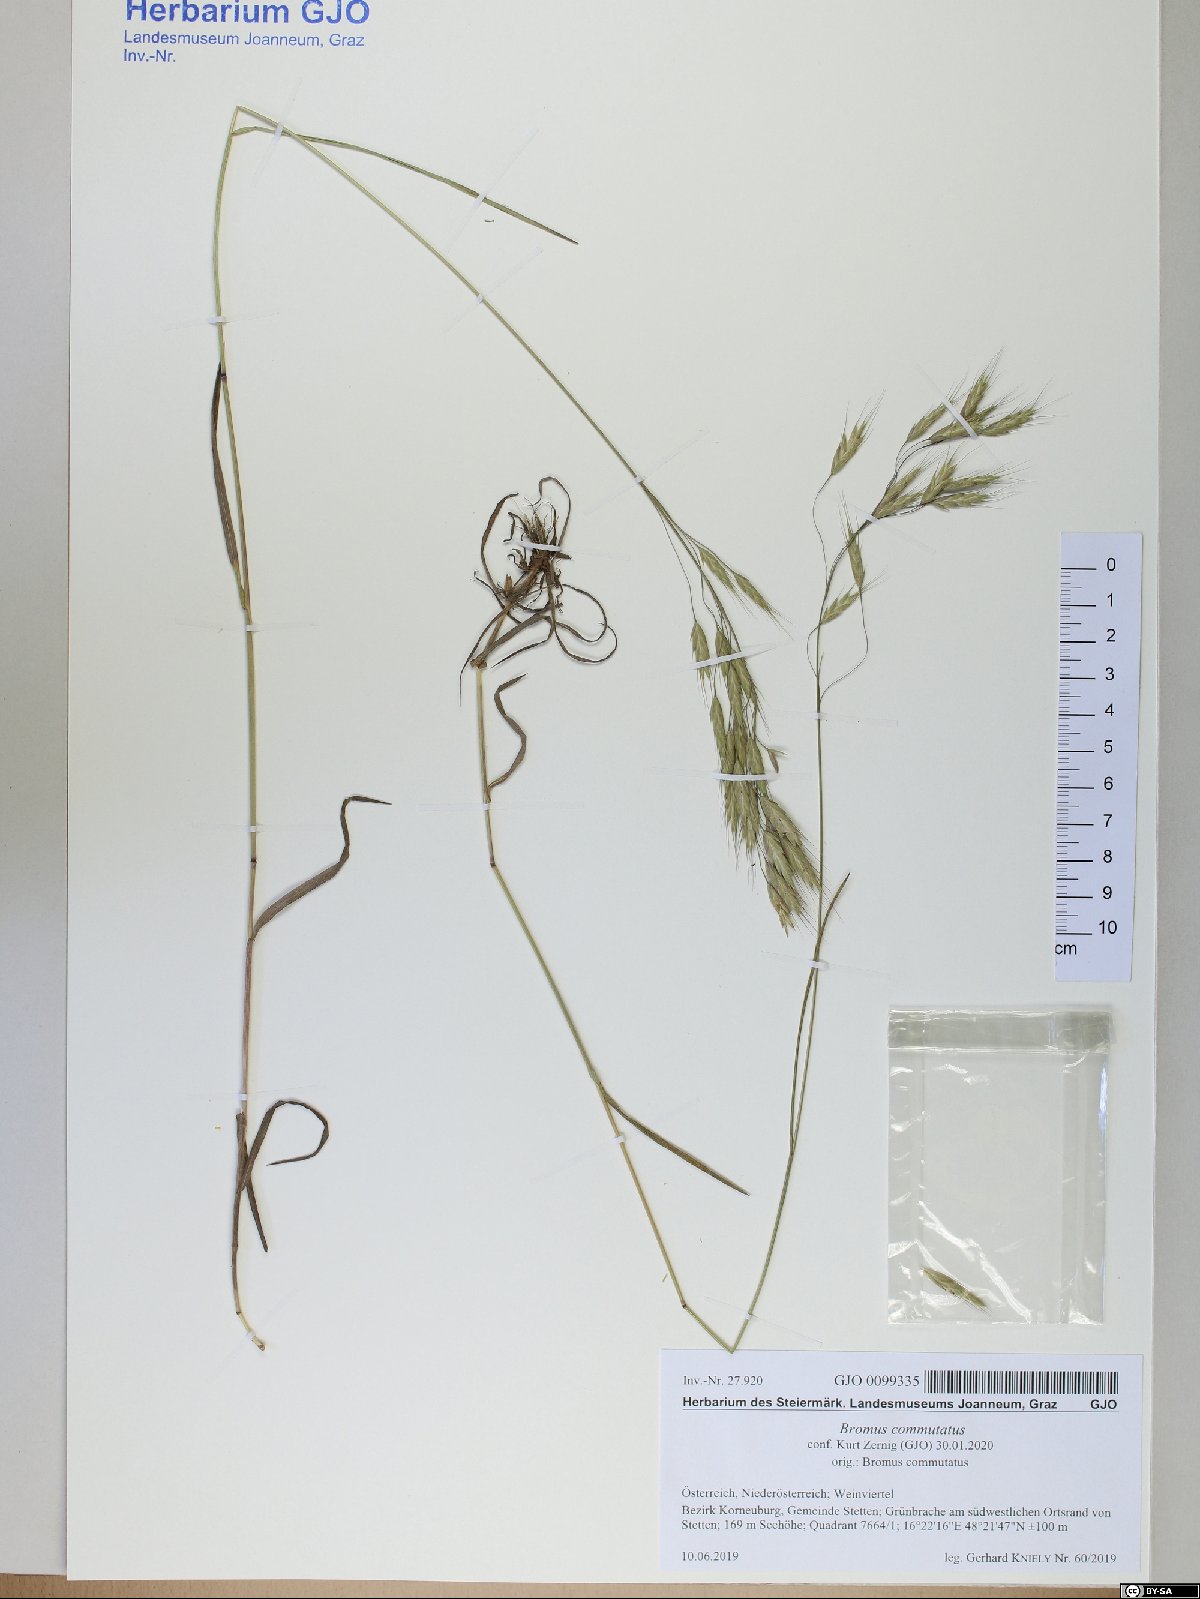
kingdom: Plantae
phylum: Tracheophyta
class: Liliopsida
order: Poales
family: Poaceae
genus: Bromus
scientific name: Bromus commutatus
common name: Meadow brome
